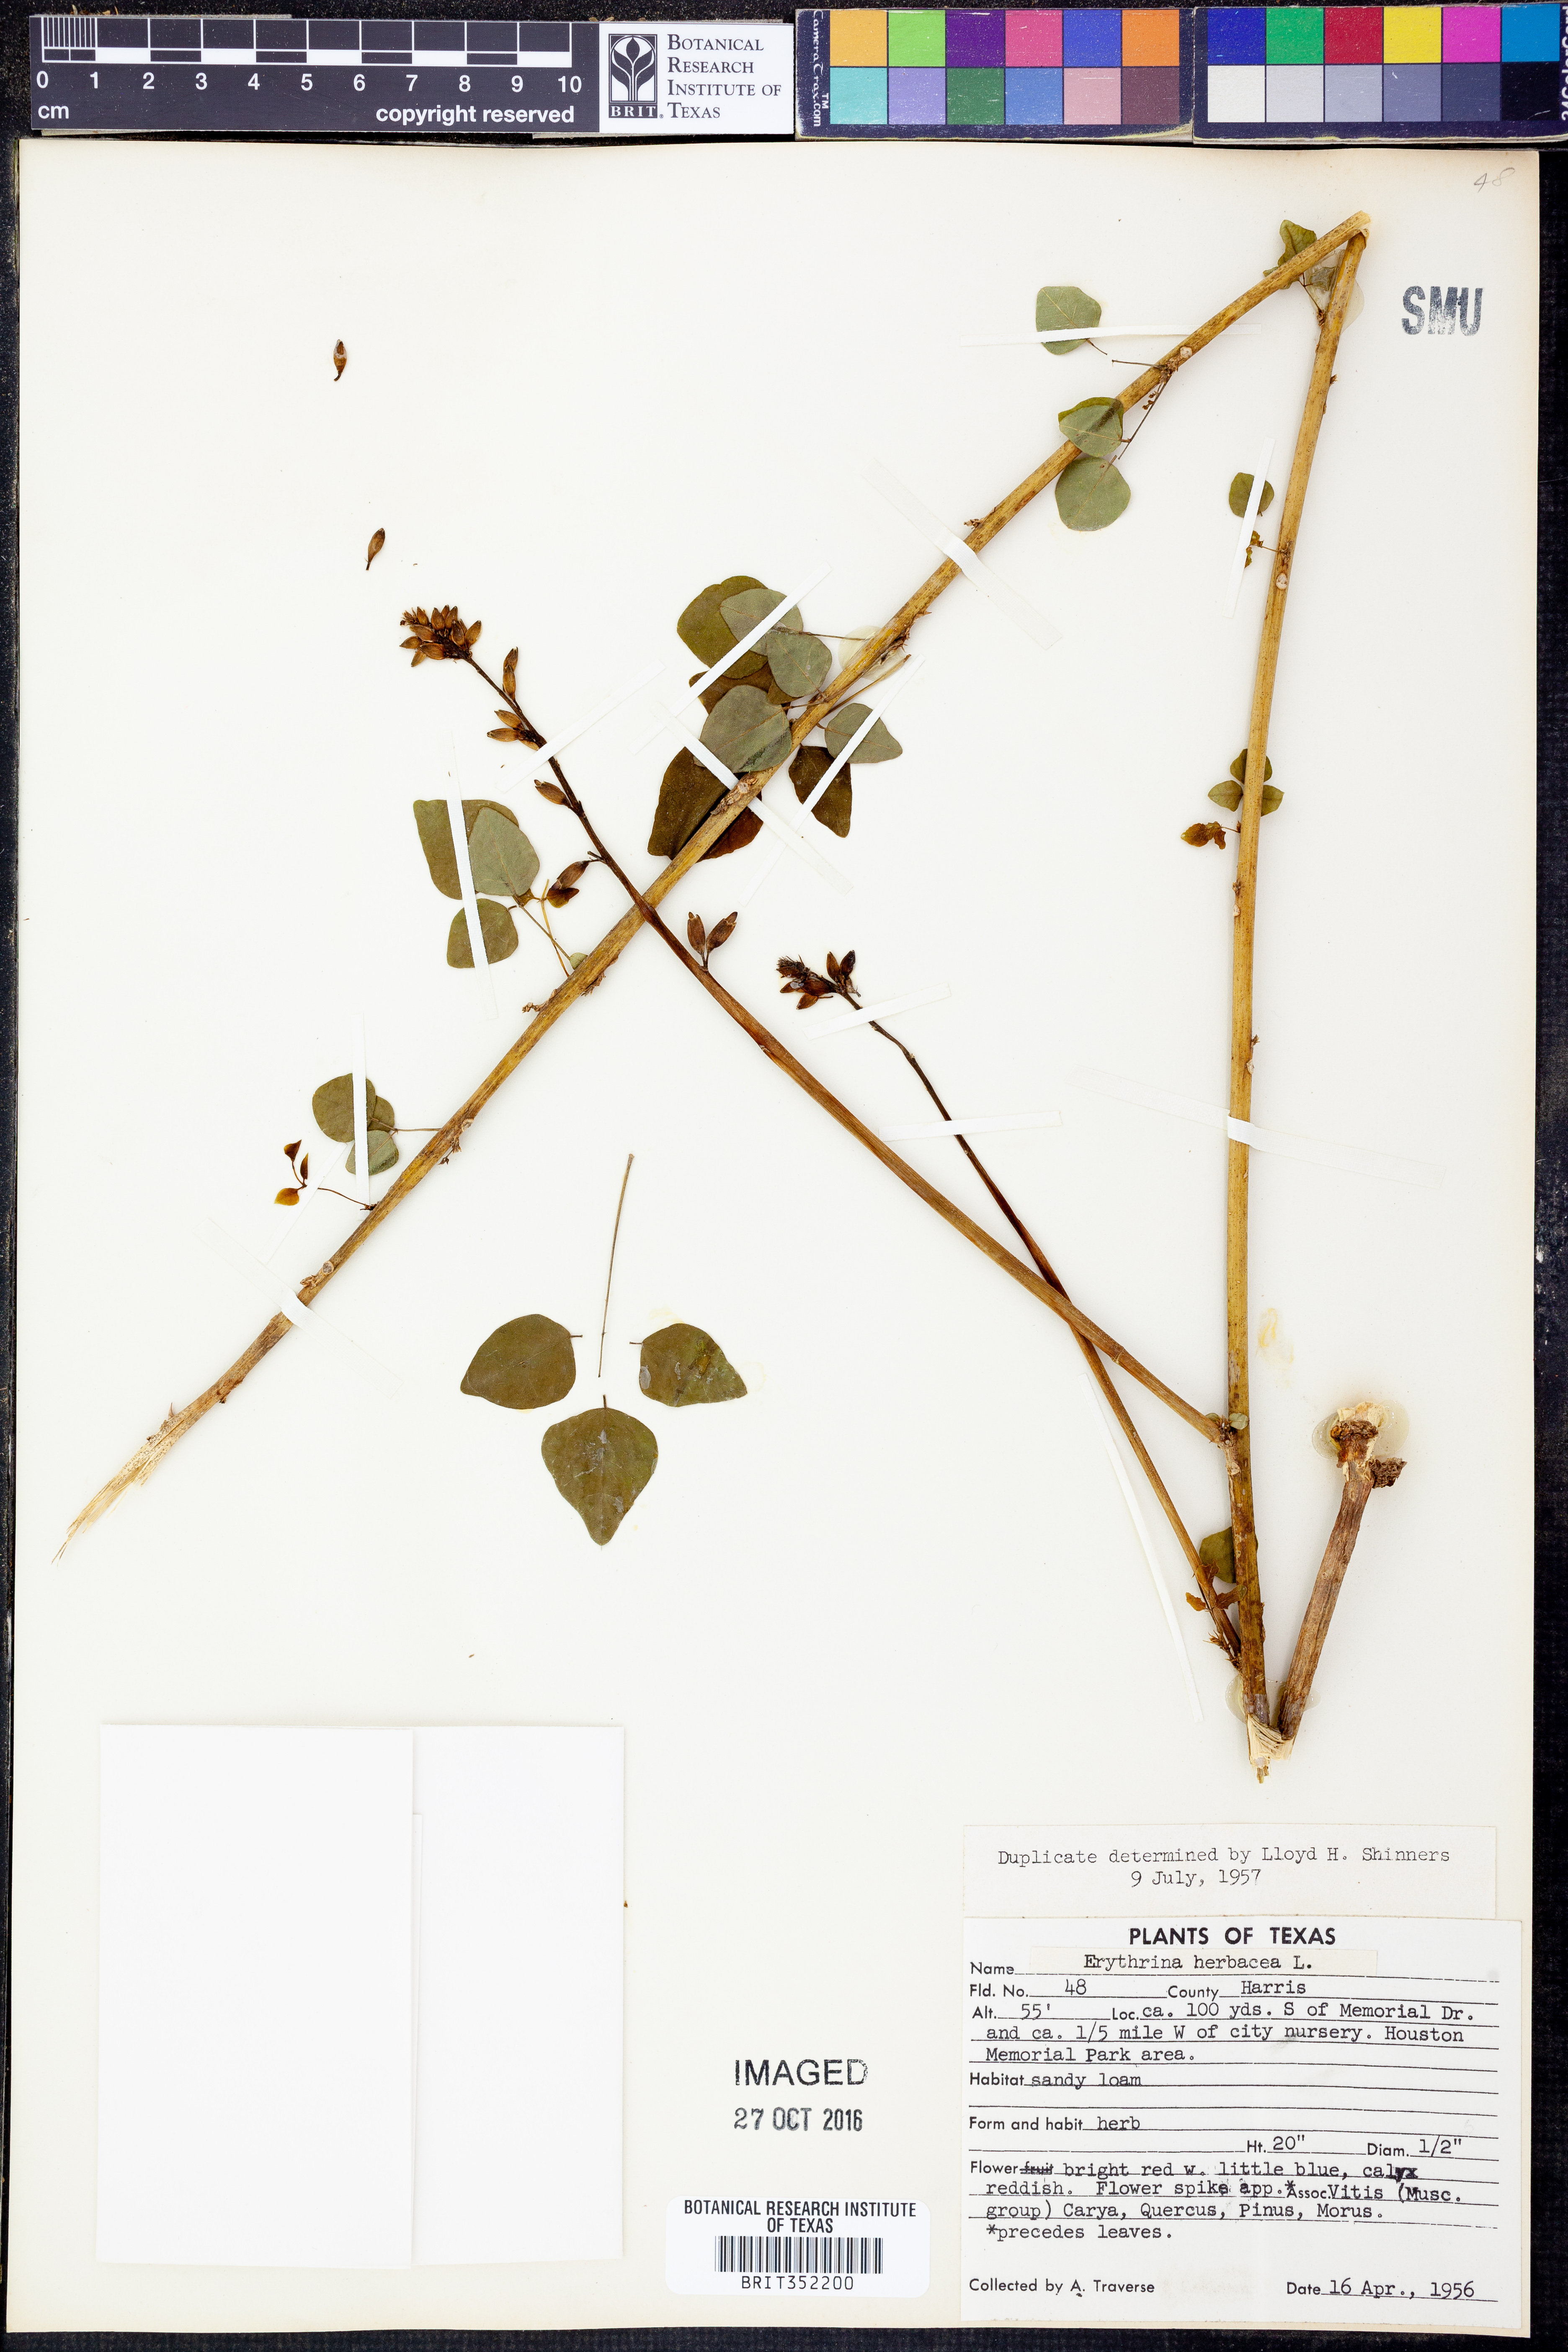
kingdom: Plantae
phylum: Tracheophyta
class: Magnoliopsida
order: Fabales
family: Fabaceae
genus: Erythrina
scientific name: Erythrina herbacea
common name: Coral-bean
